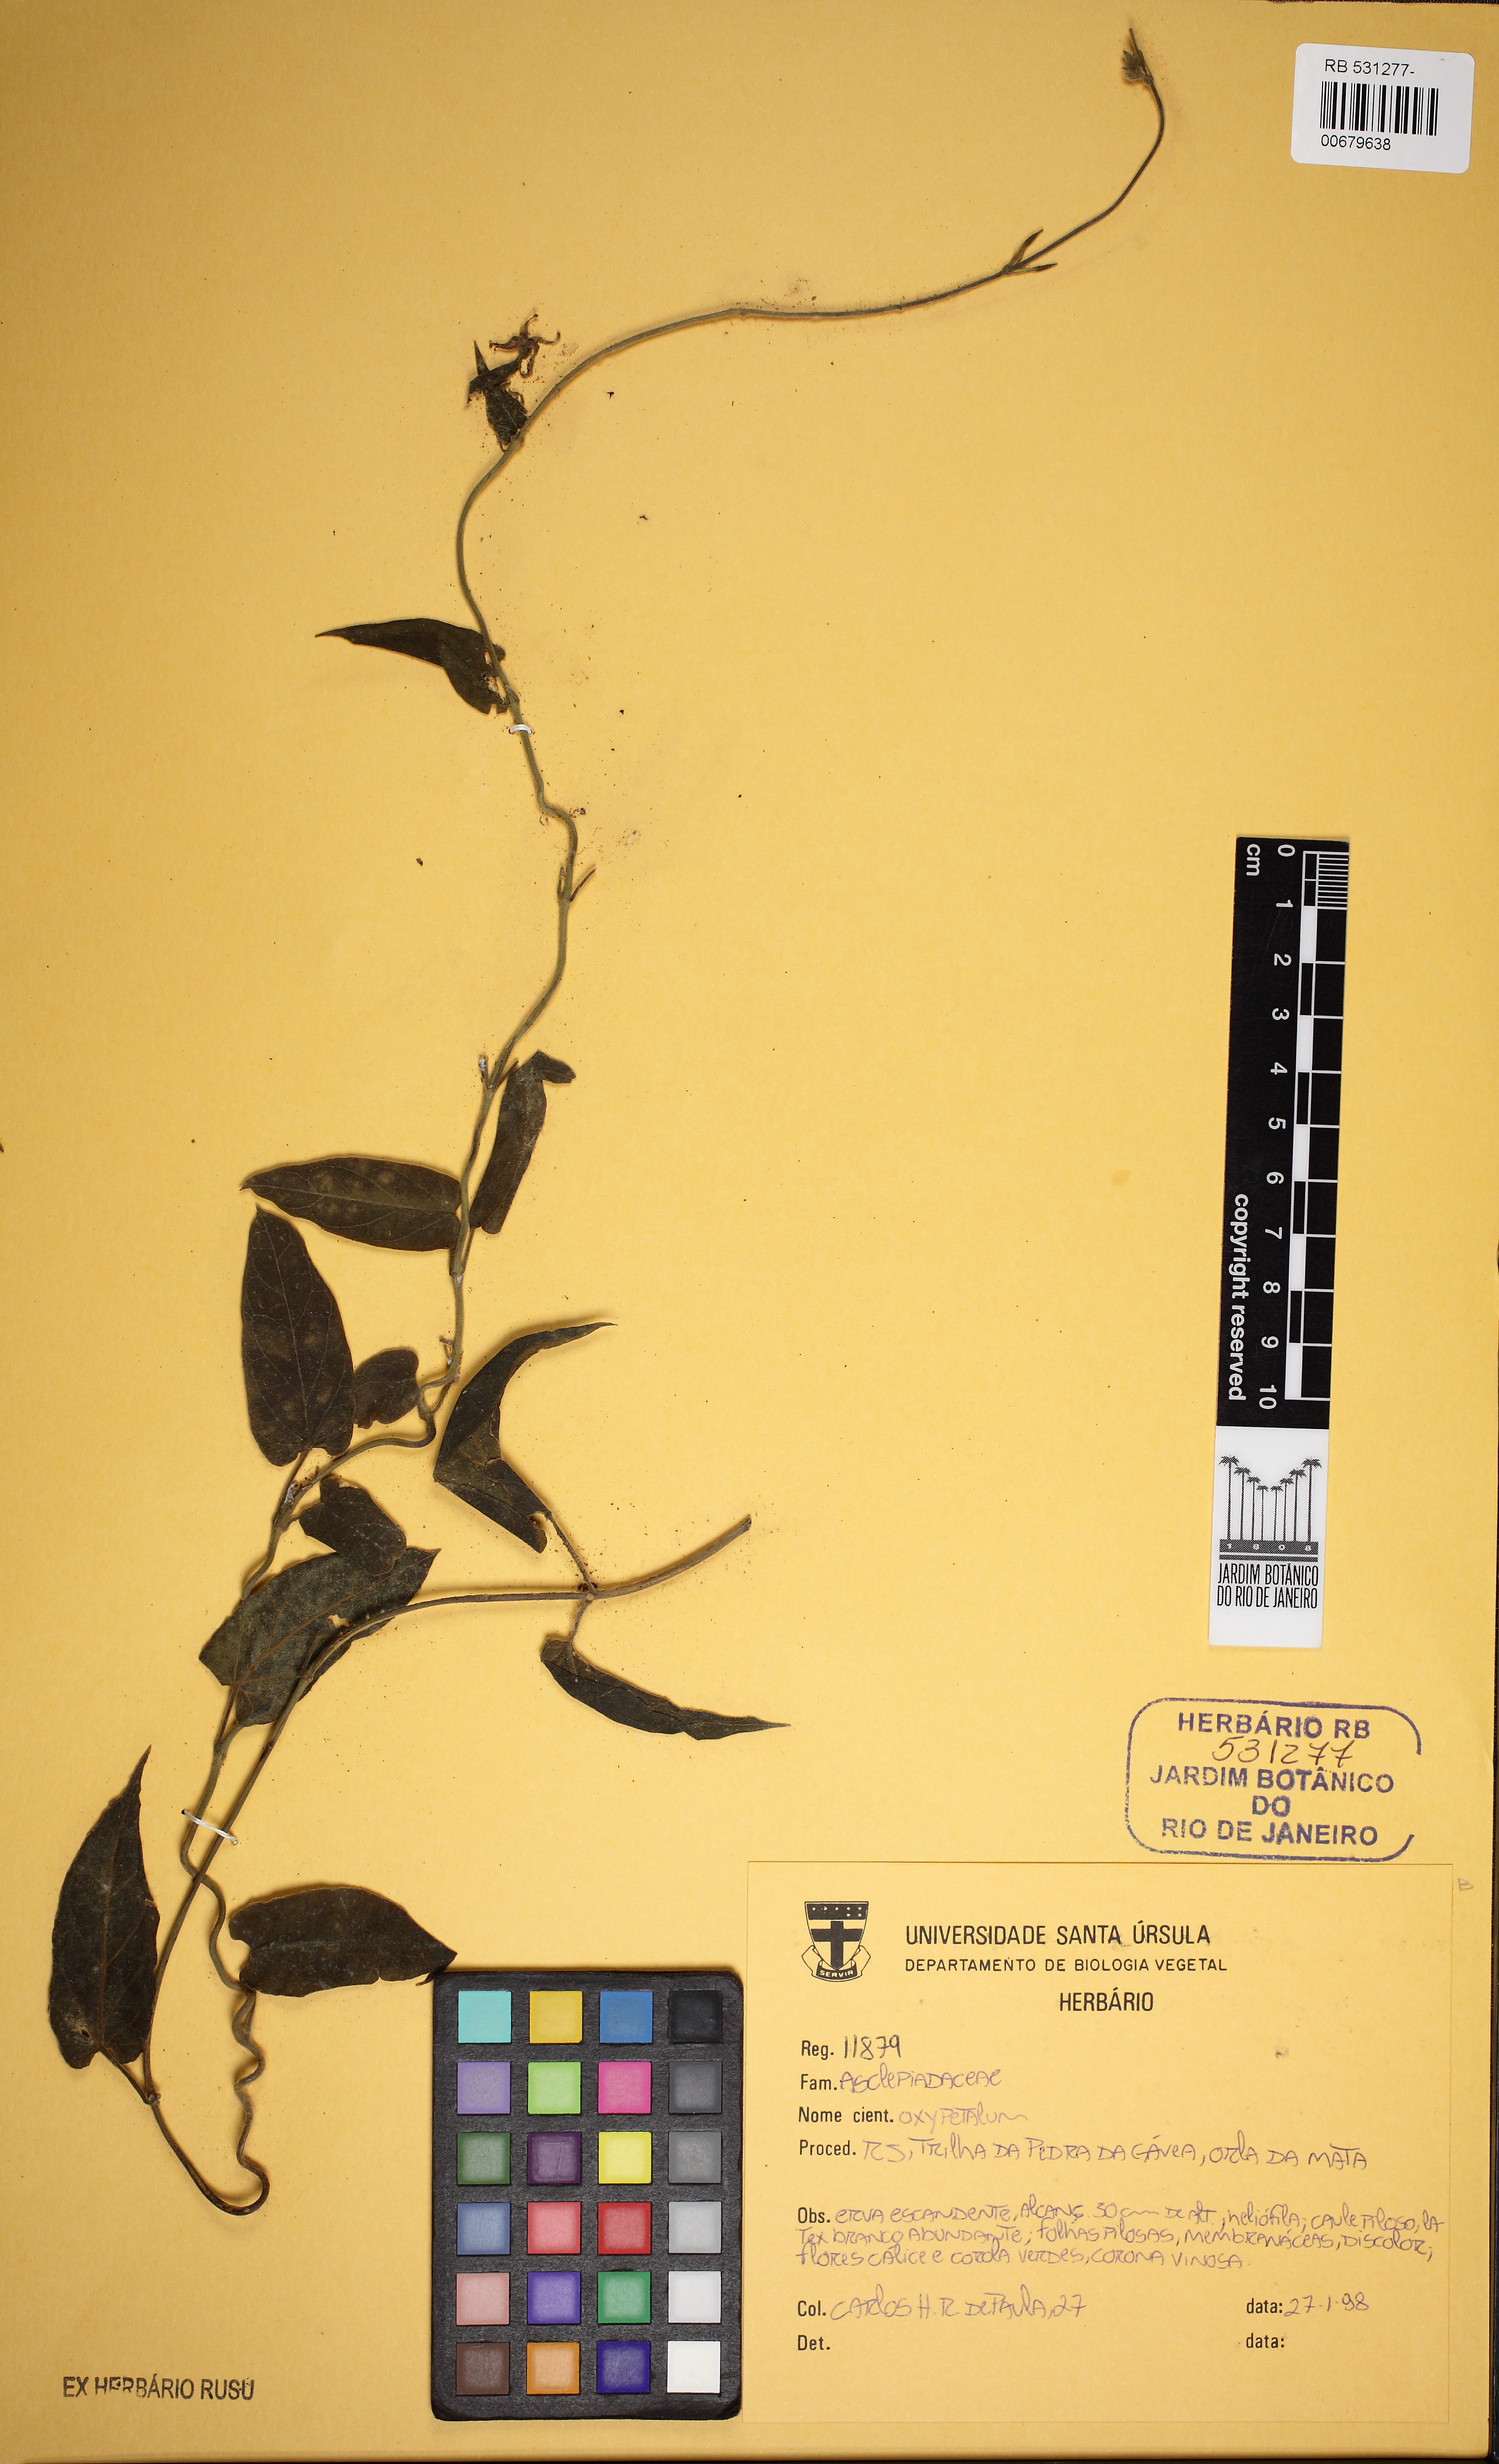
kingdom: Plantae
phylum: Tracheophyta
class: Magnoliopsida
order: Gentianales
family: Apocynaceae
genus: Oxypetalum
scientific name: Oxypetalum
